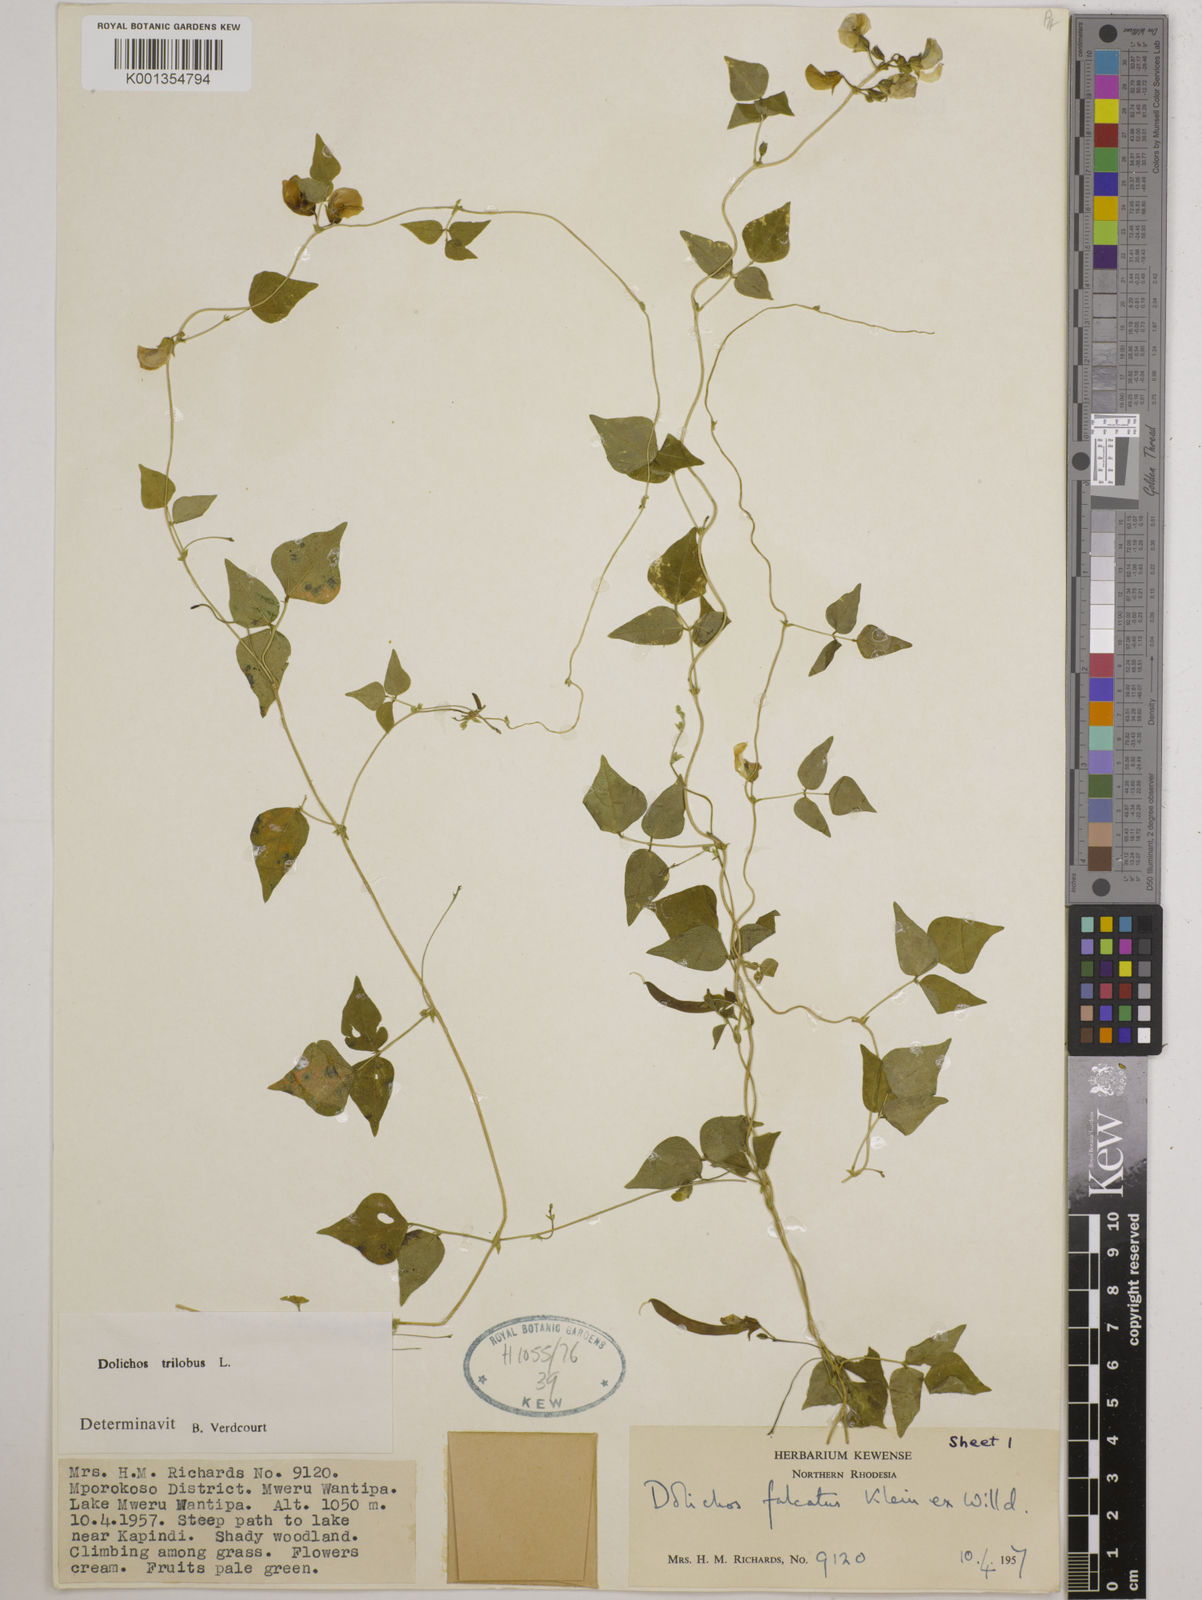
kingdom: Plantae
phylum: Tracheophyta
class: Magnoliopsida
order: Fabales
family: Fabaceae
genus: Dolichos
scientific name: Dolichos
